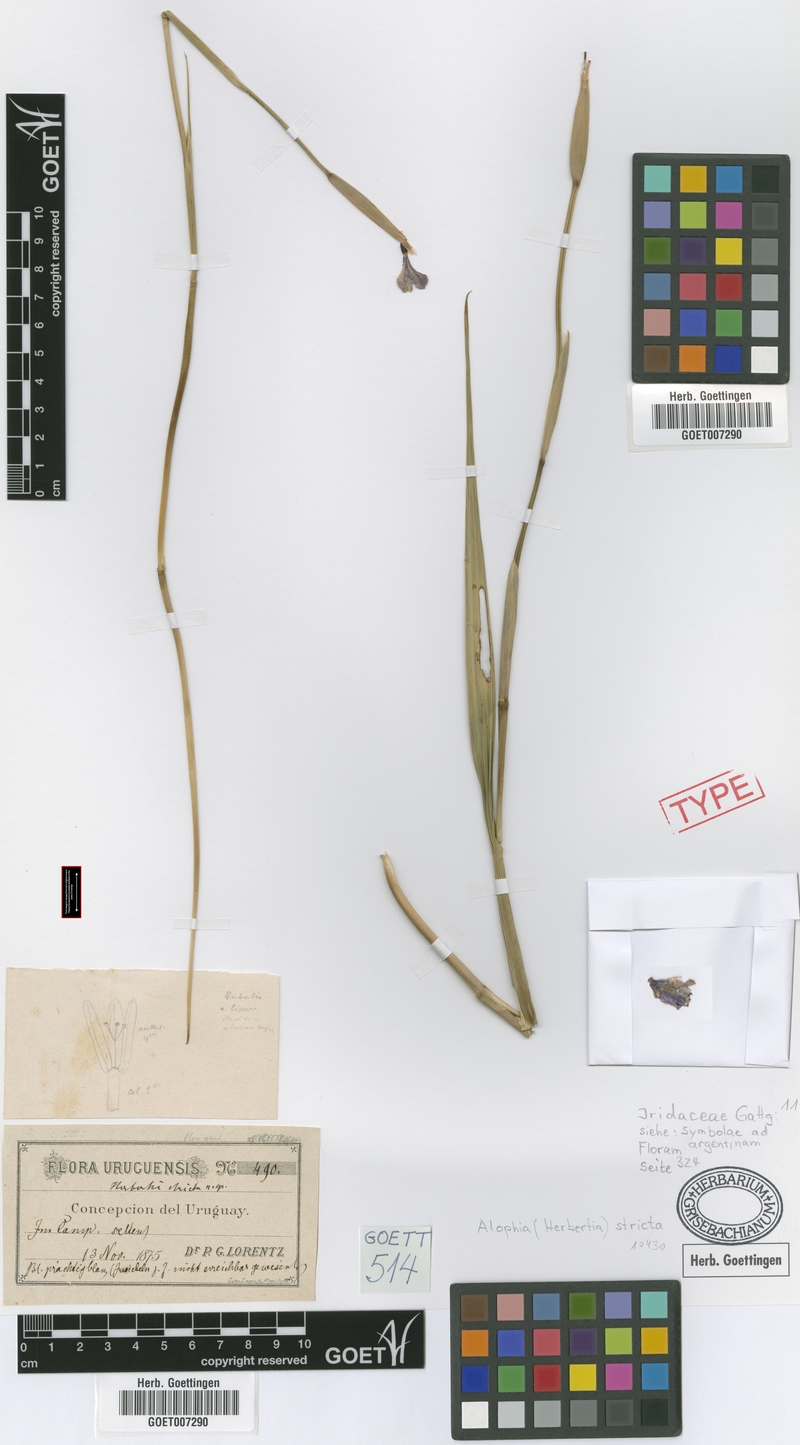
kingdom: Plantae
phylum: Tracheophyta
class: Liliopsida
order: Asparagales
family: Iridaceae
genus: Gelasine
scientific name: Gelasine elongata
